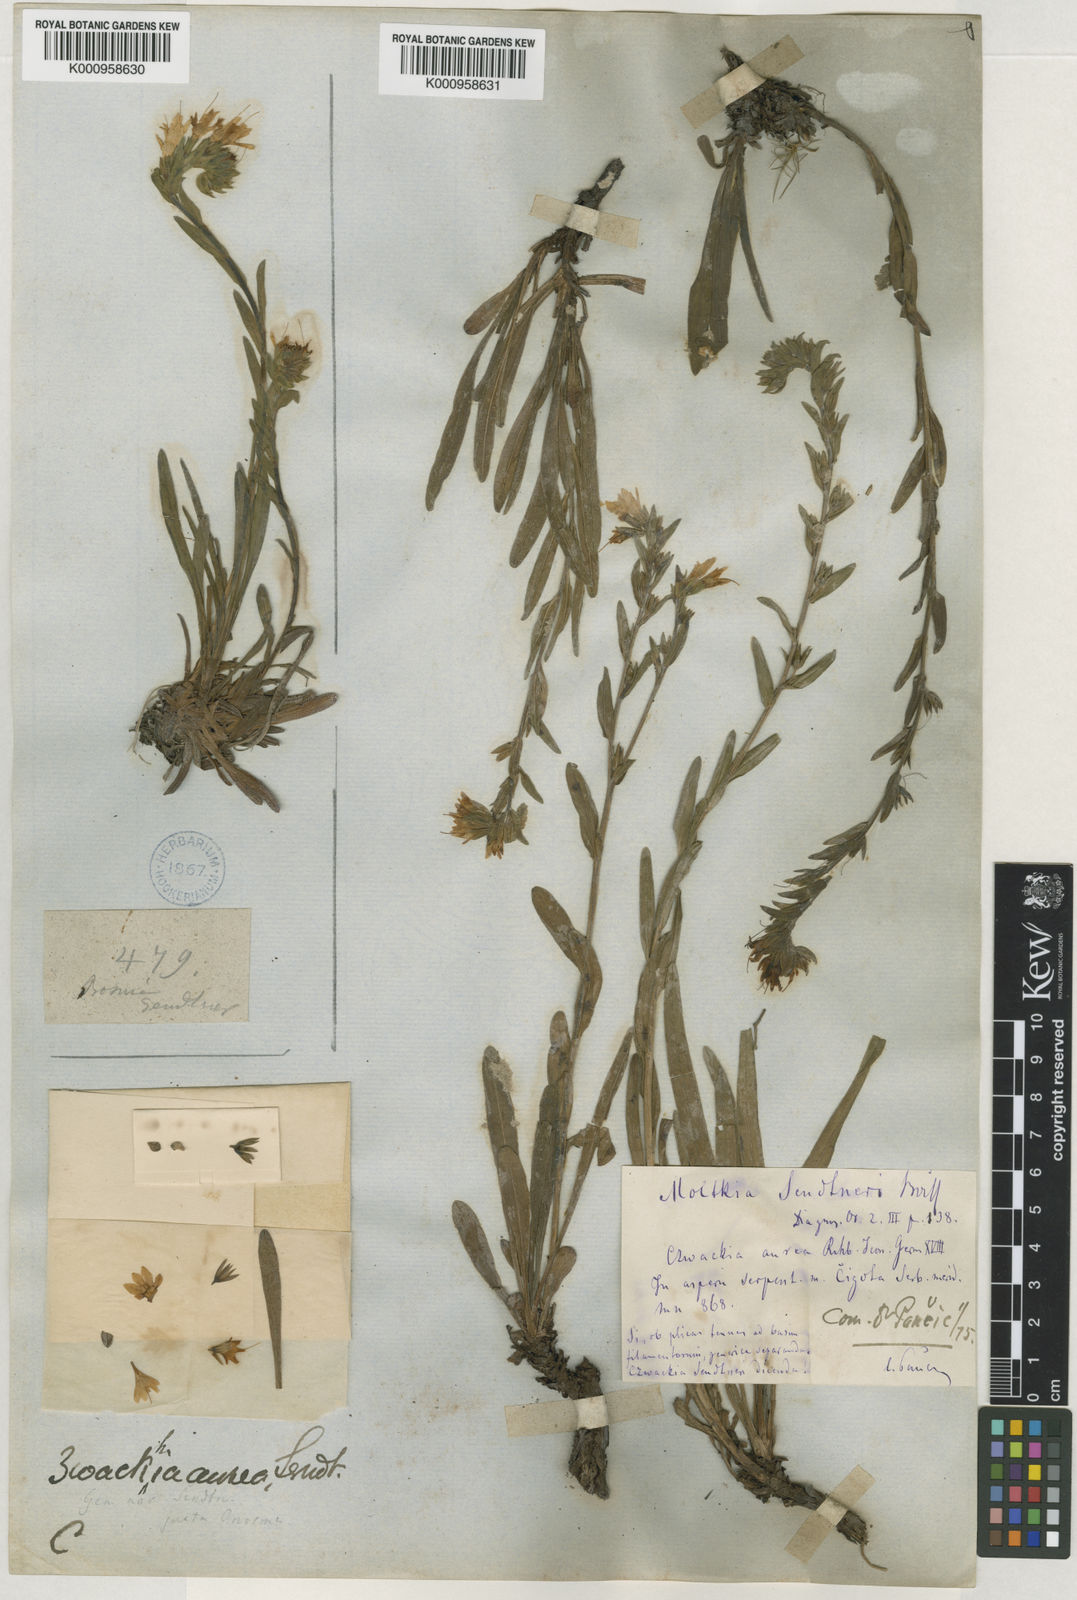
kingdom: Plantae
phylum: Tracheophyta
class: Magnoliopsida
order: Boraginales
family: Boraginaceae
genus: Halacsya
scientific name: Halacsya
